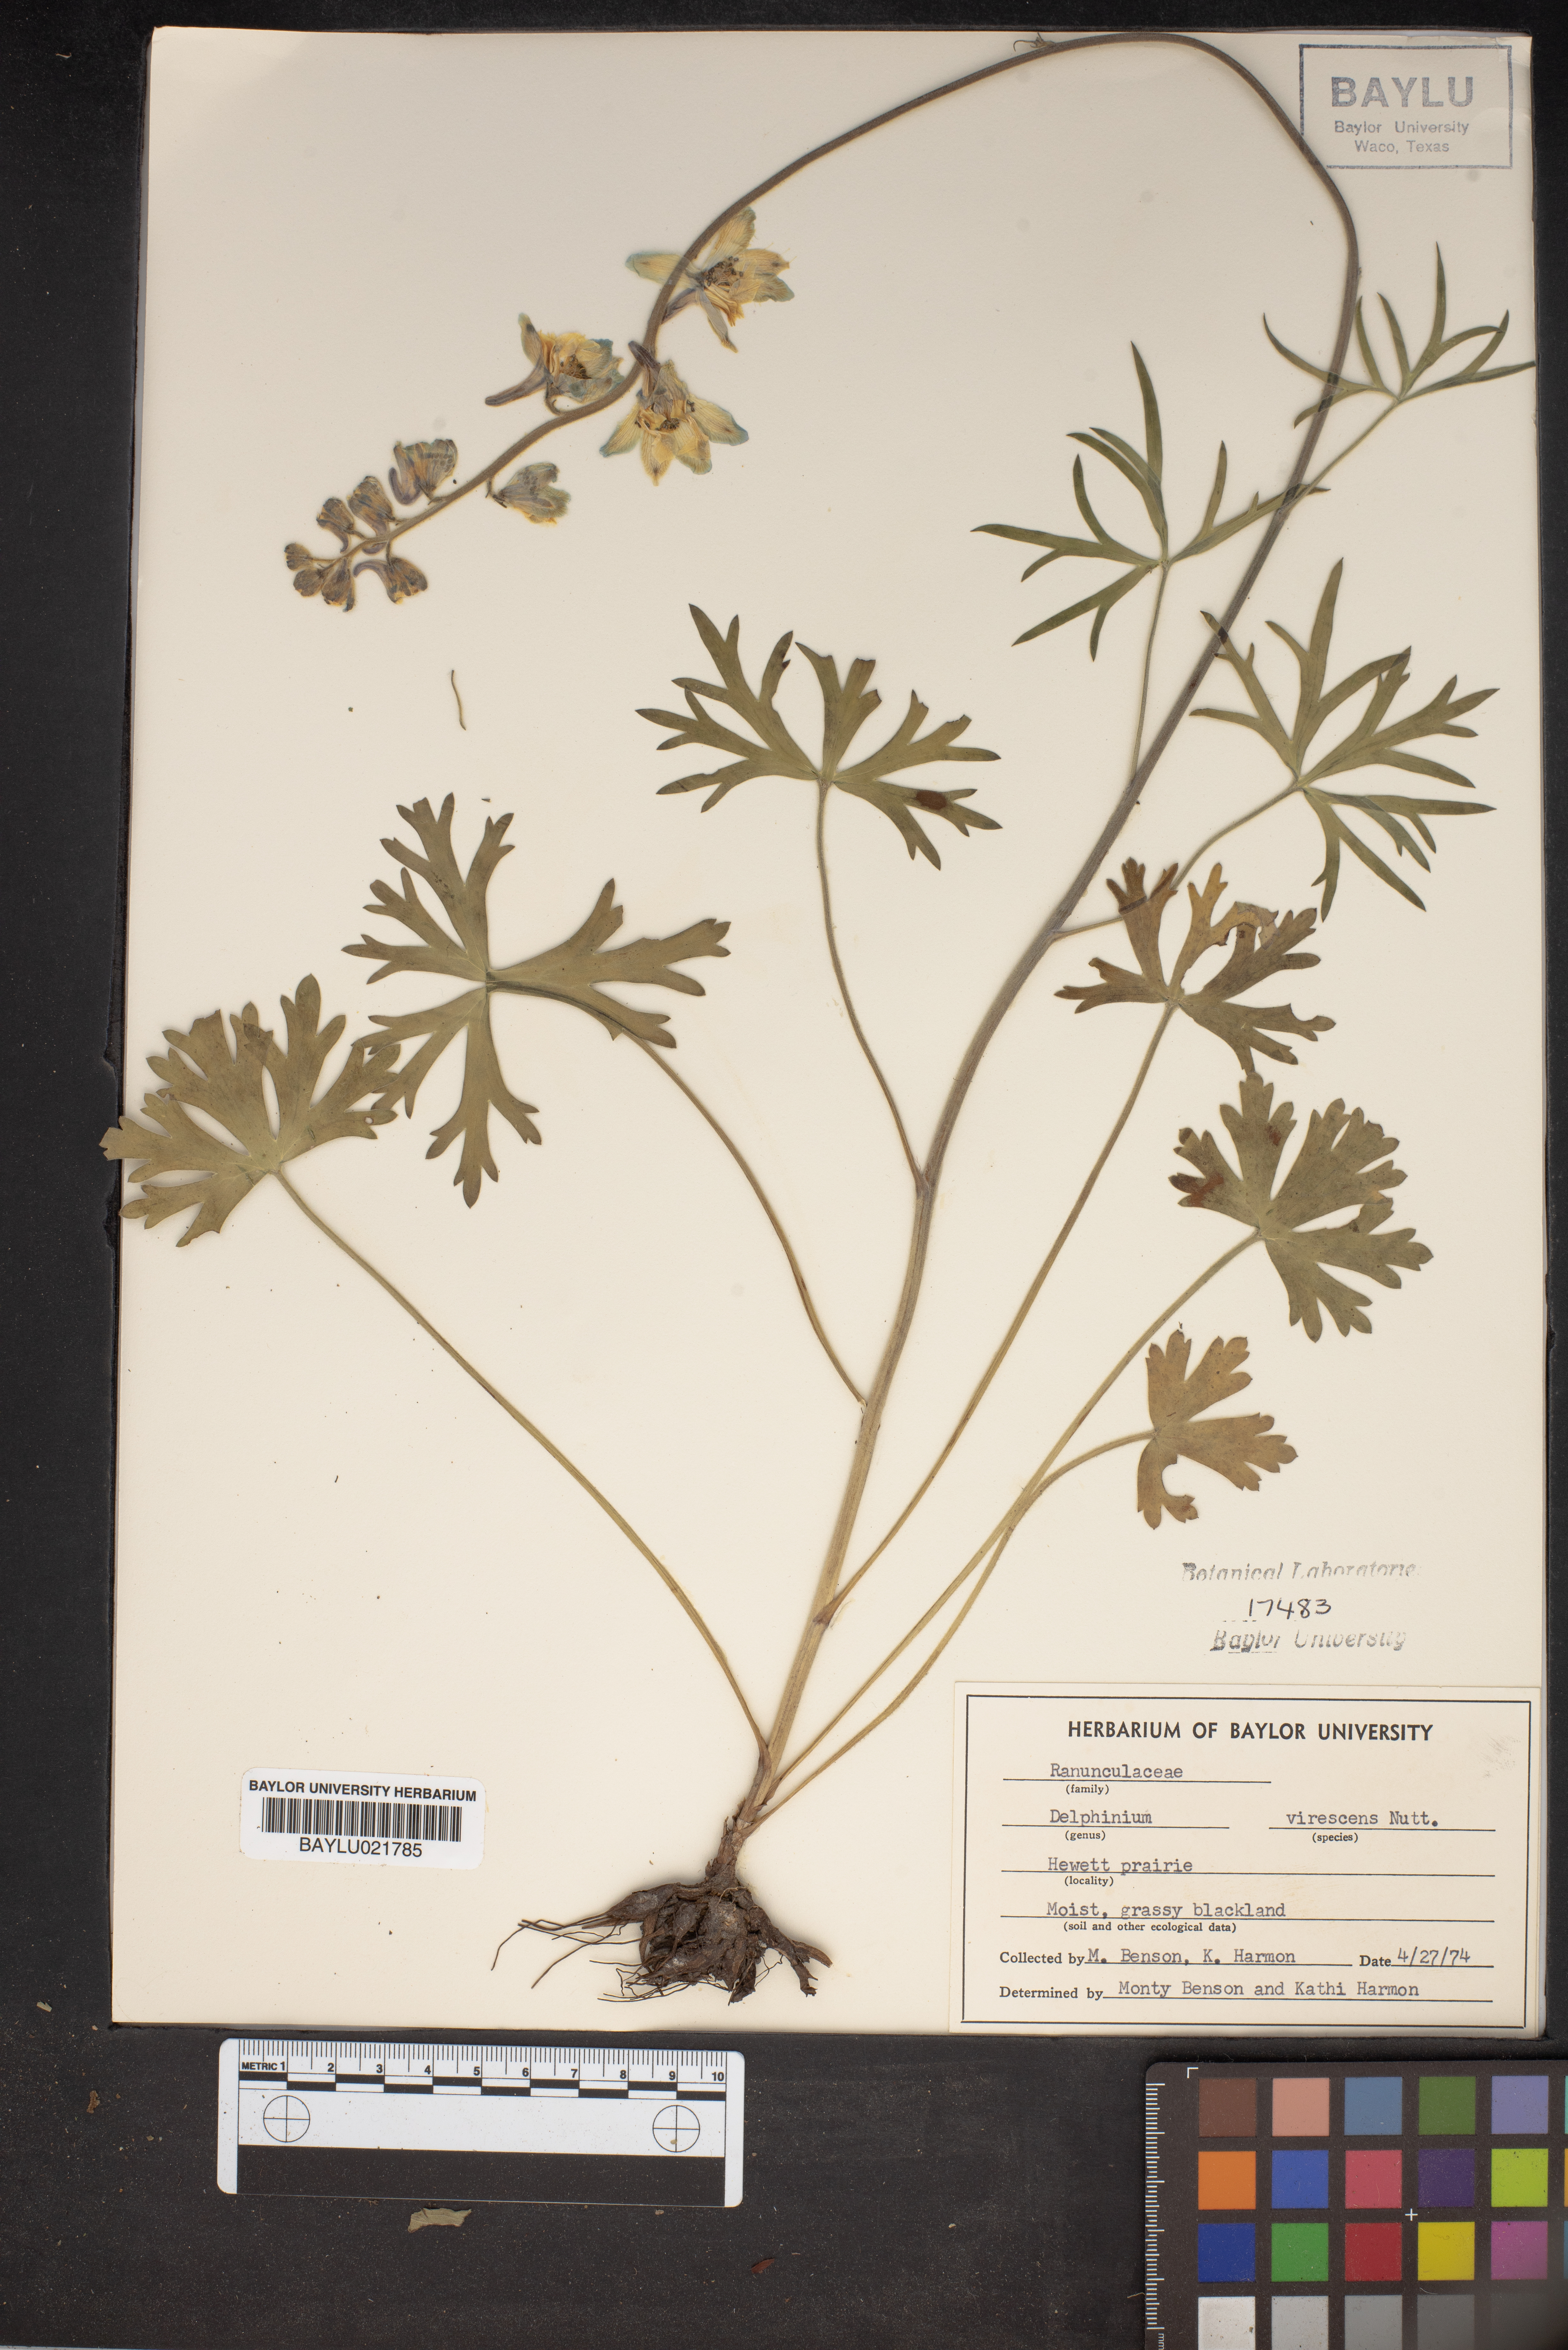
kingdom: Plantae
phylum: Tracheophyta
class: Magnoliopsida
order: Ranunculales
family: Ranunculaceae
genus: Delphinium
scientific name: Delphinium carolinianum
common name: Carolina larkspur
